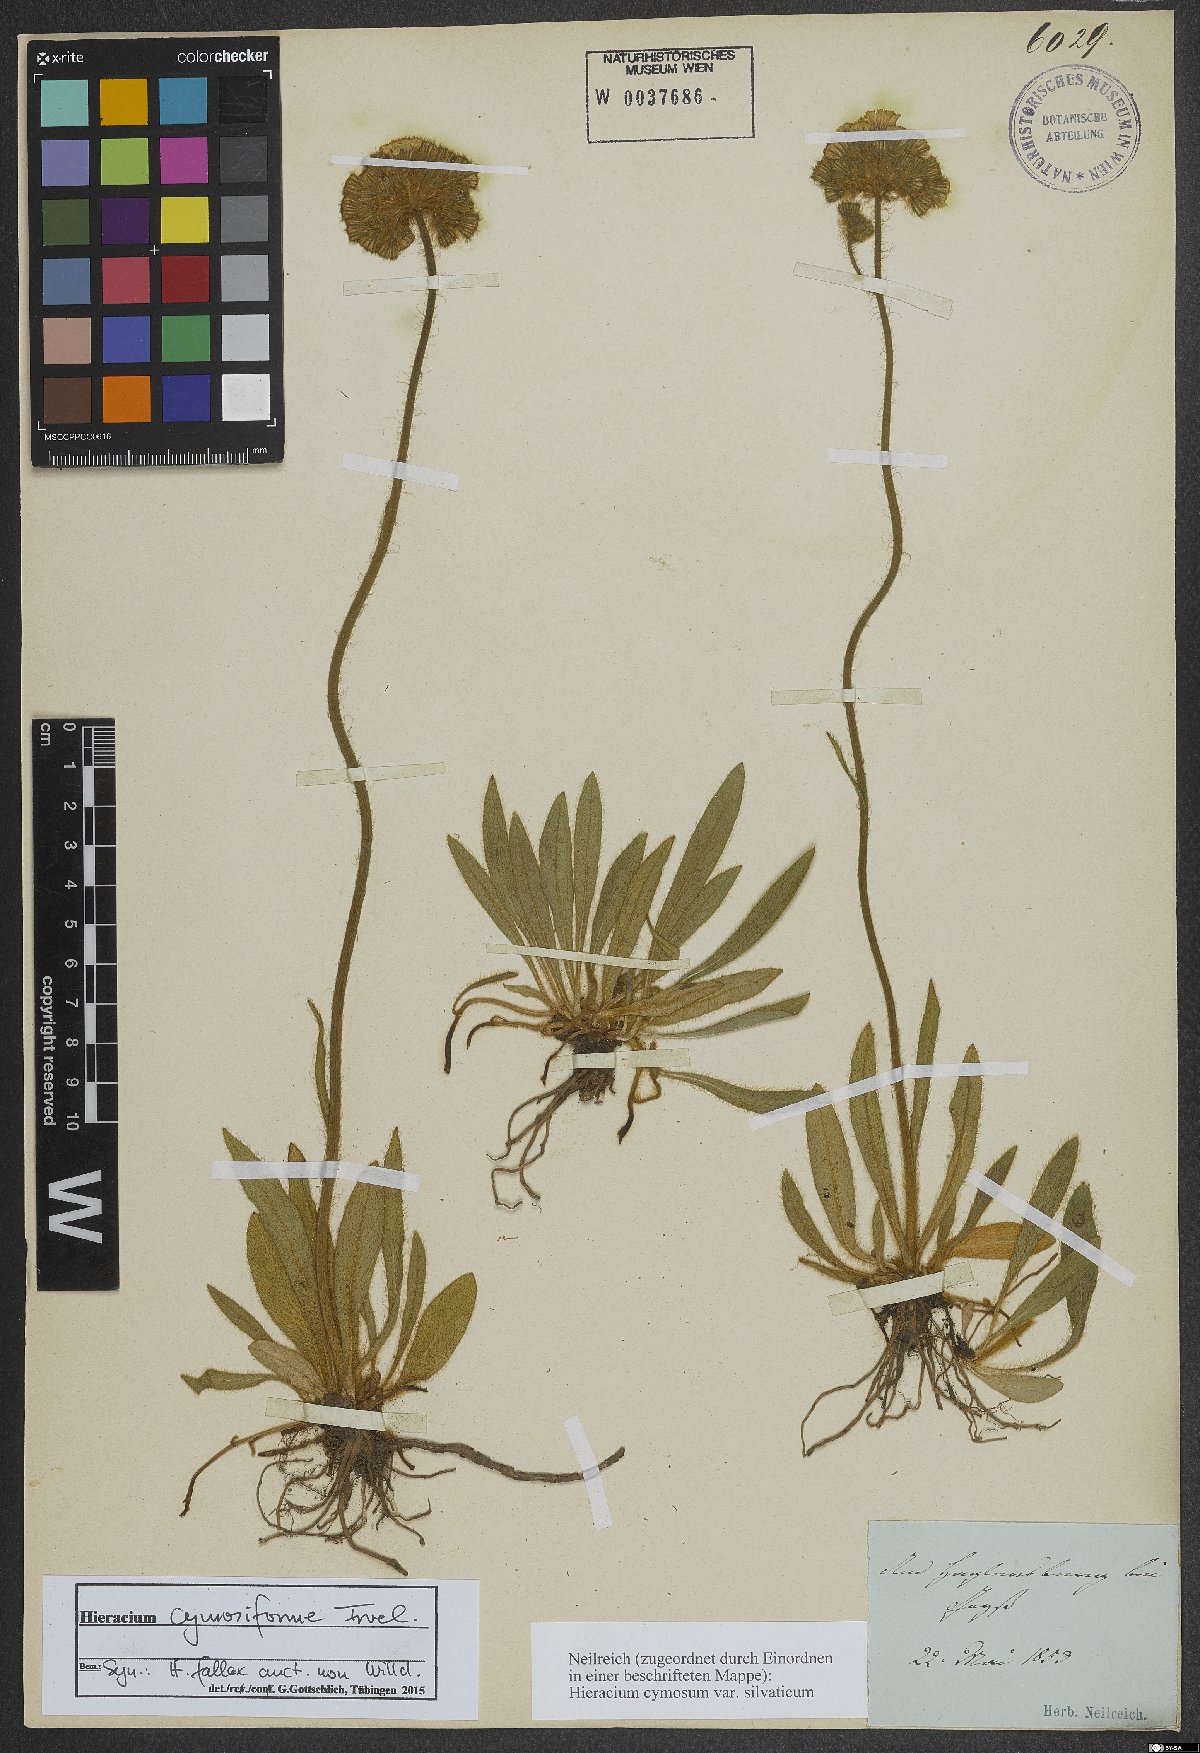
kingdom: Plantae
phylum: Tracheophyta
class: Magnoliopsida
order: Asterales
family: Asteraceae
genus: Pilosella
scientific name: Pilosella cymosiformis
